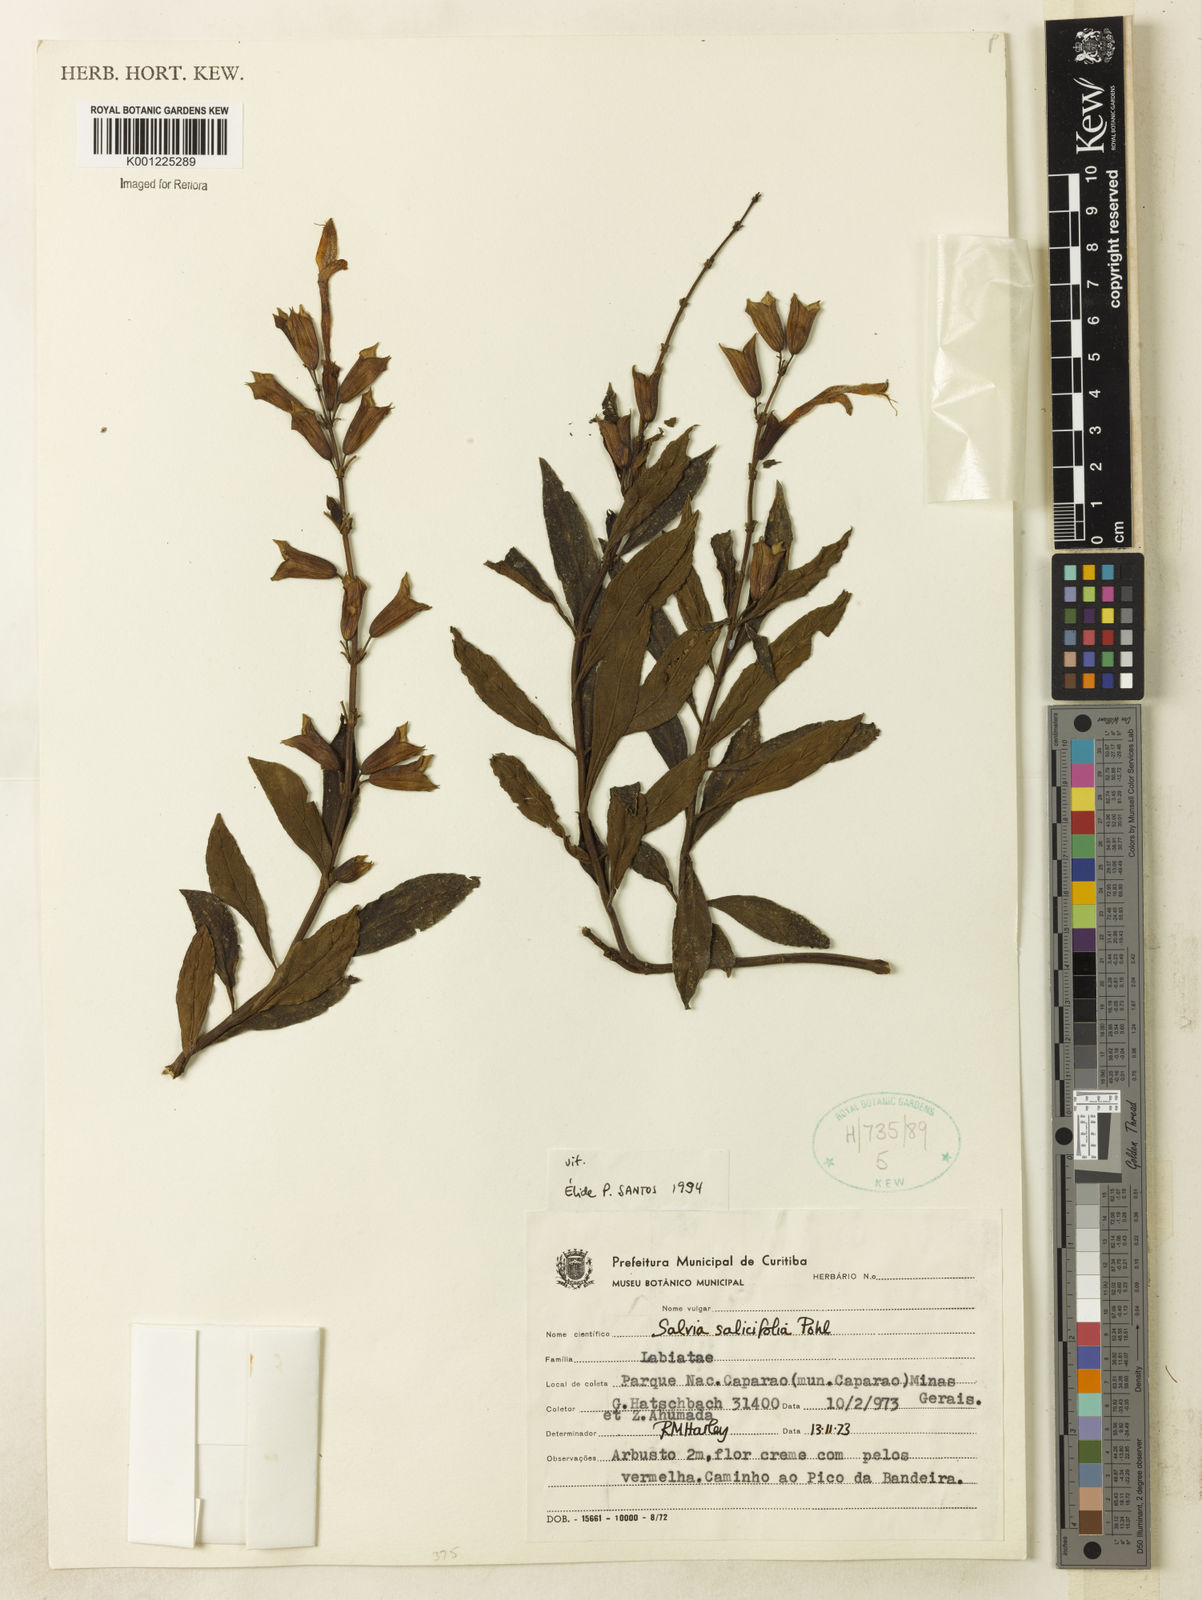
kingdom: Plantae
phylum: Tracheophyta
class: Magnoliopsida
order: Lamiales
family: Lamiaceae
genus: Salvia
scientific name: Salvia salicifolia
